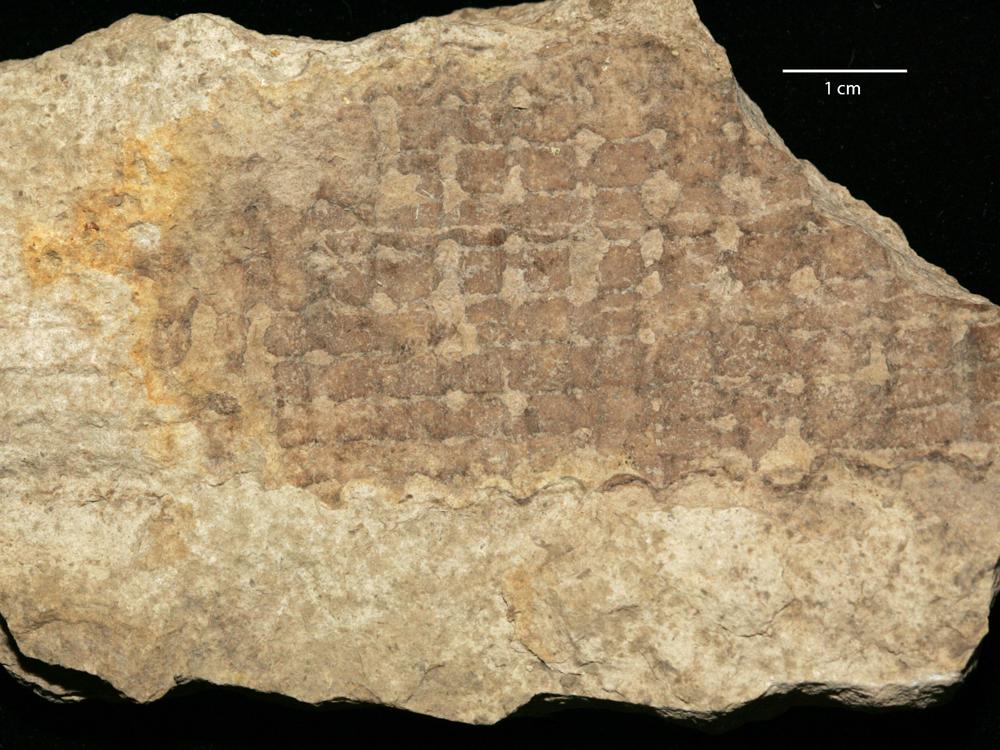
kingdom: Animalia
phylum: Mollusca
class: Cephalopoda
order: Orthocerida
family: Pseudorthoceratidae
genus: Spyroceras
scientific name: Spyroceras
